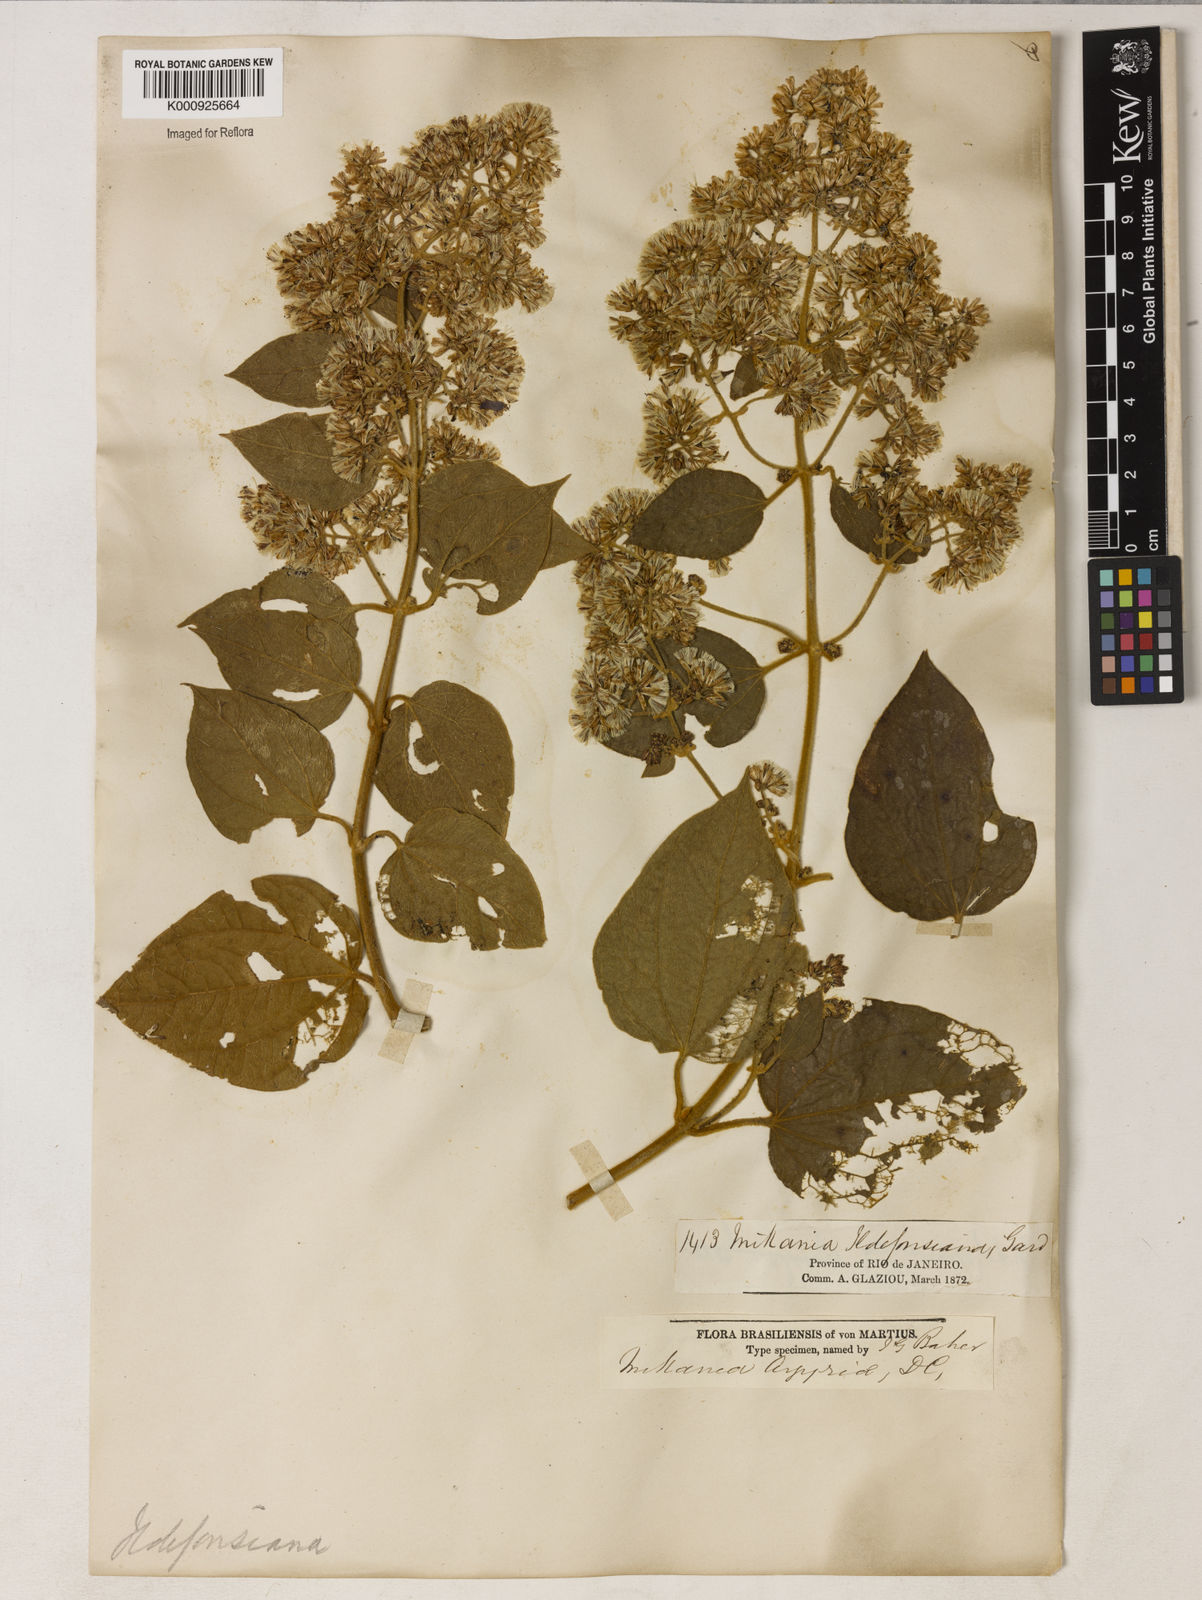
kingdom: Plantae
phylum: Tracheophyta
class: Magnoliopsida
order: Asterales
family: Asteraceae
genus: Mikania
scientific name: Mikania
